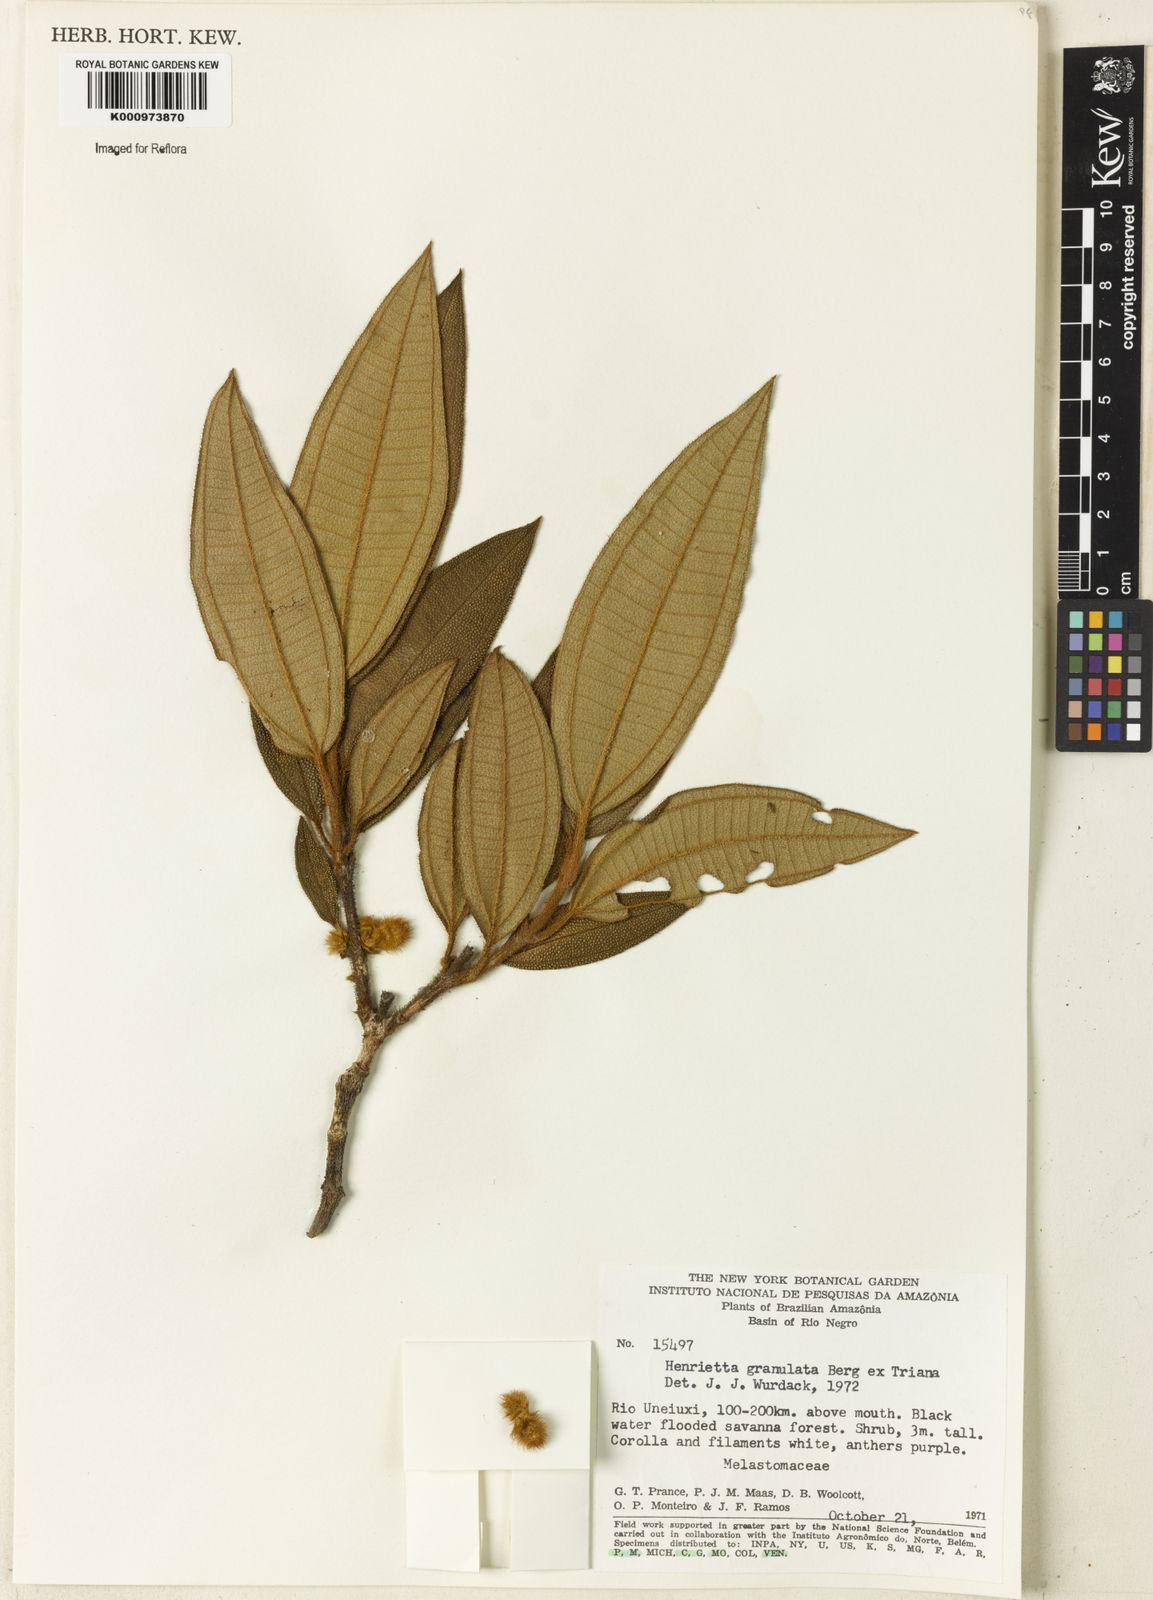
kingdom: Plantae
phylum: Tracheophyta
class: Magnoliopsida
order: Myrtales
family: Melastomataceae
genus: Henriettea
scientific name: Henriettea granulata
